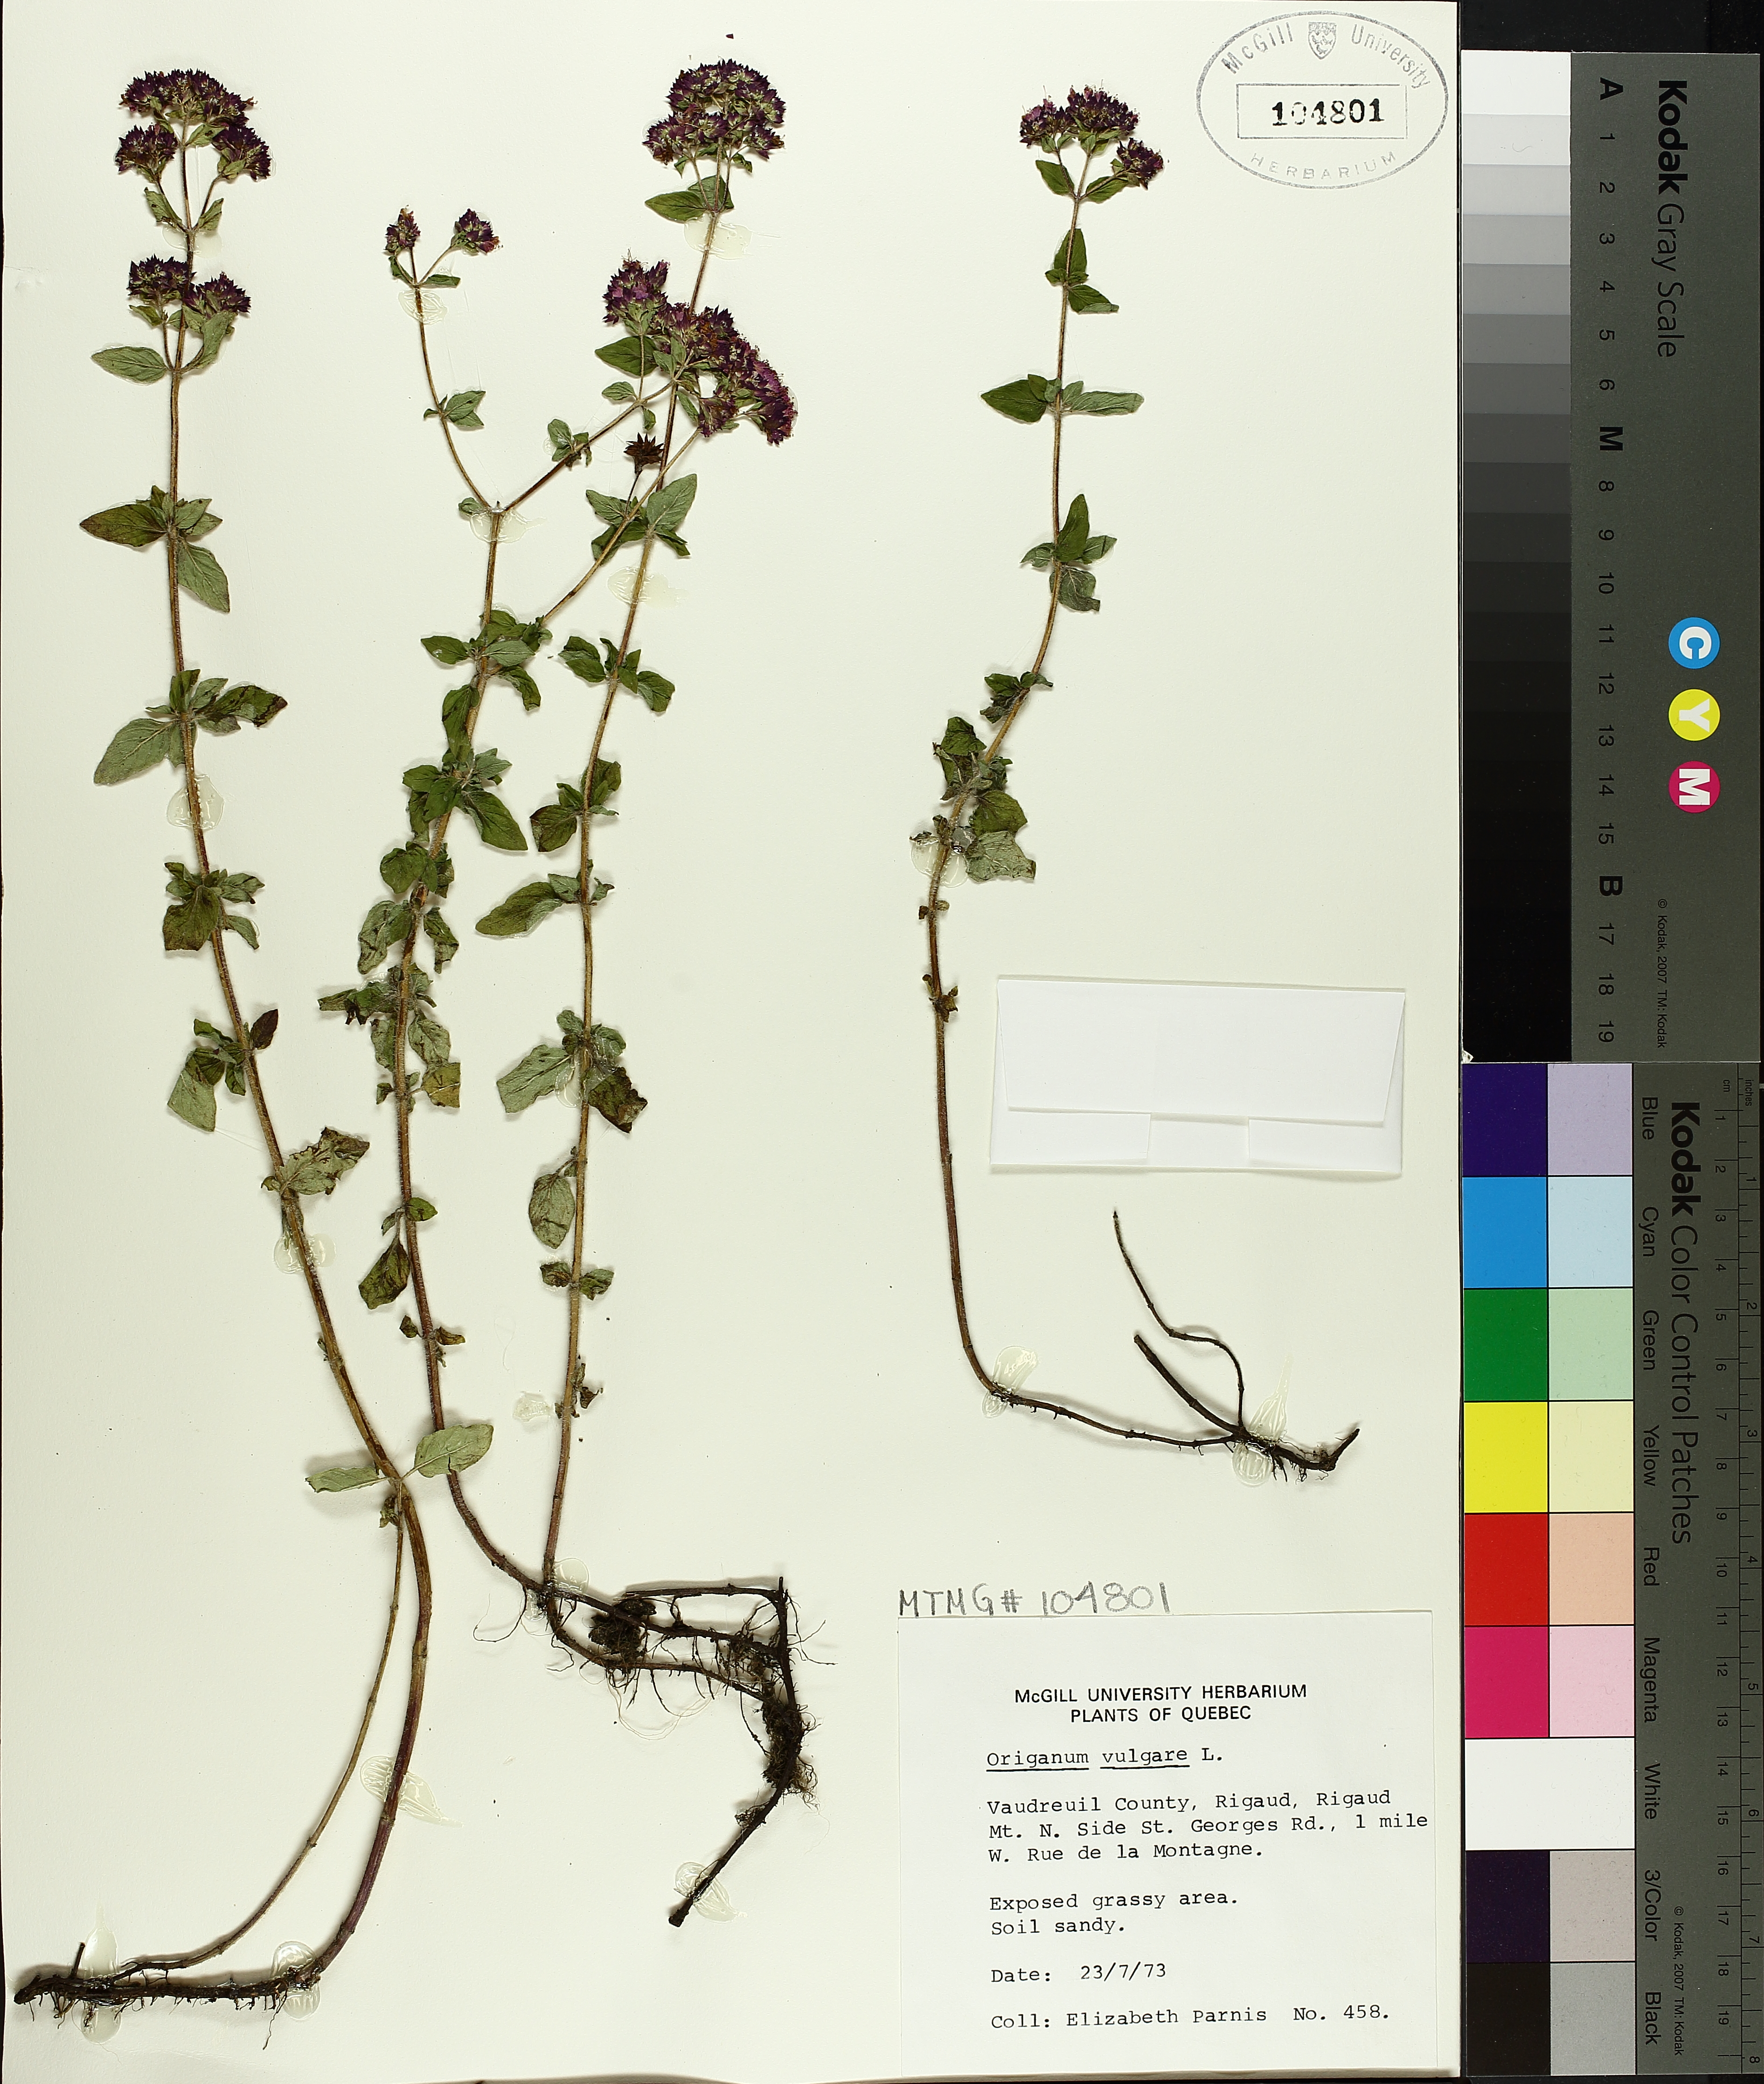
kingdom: Plantae
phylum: Tracheophyta
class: Magnoliopsida
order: Lamiales
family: Lamiaceae
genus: Origanum
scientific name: Origanum vulgare
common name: Wild marjoram
